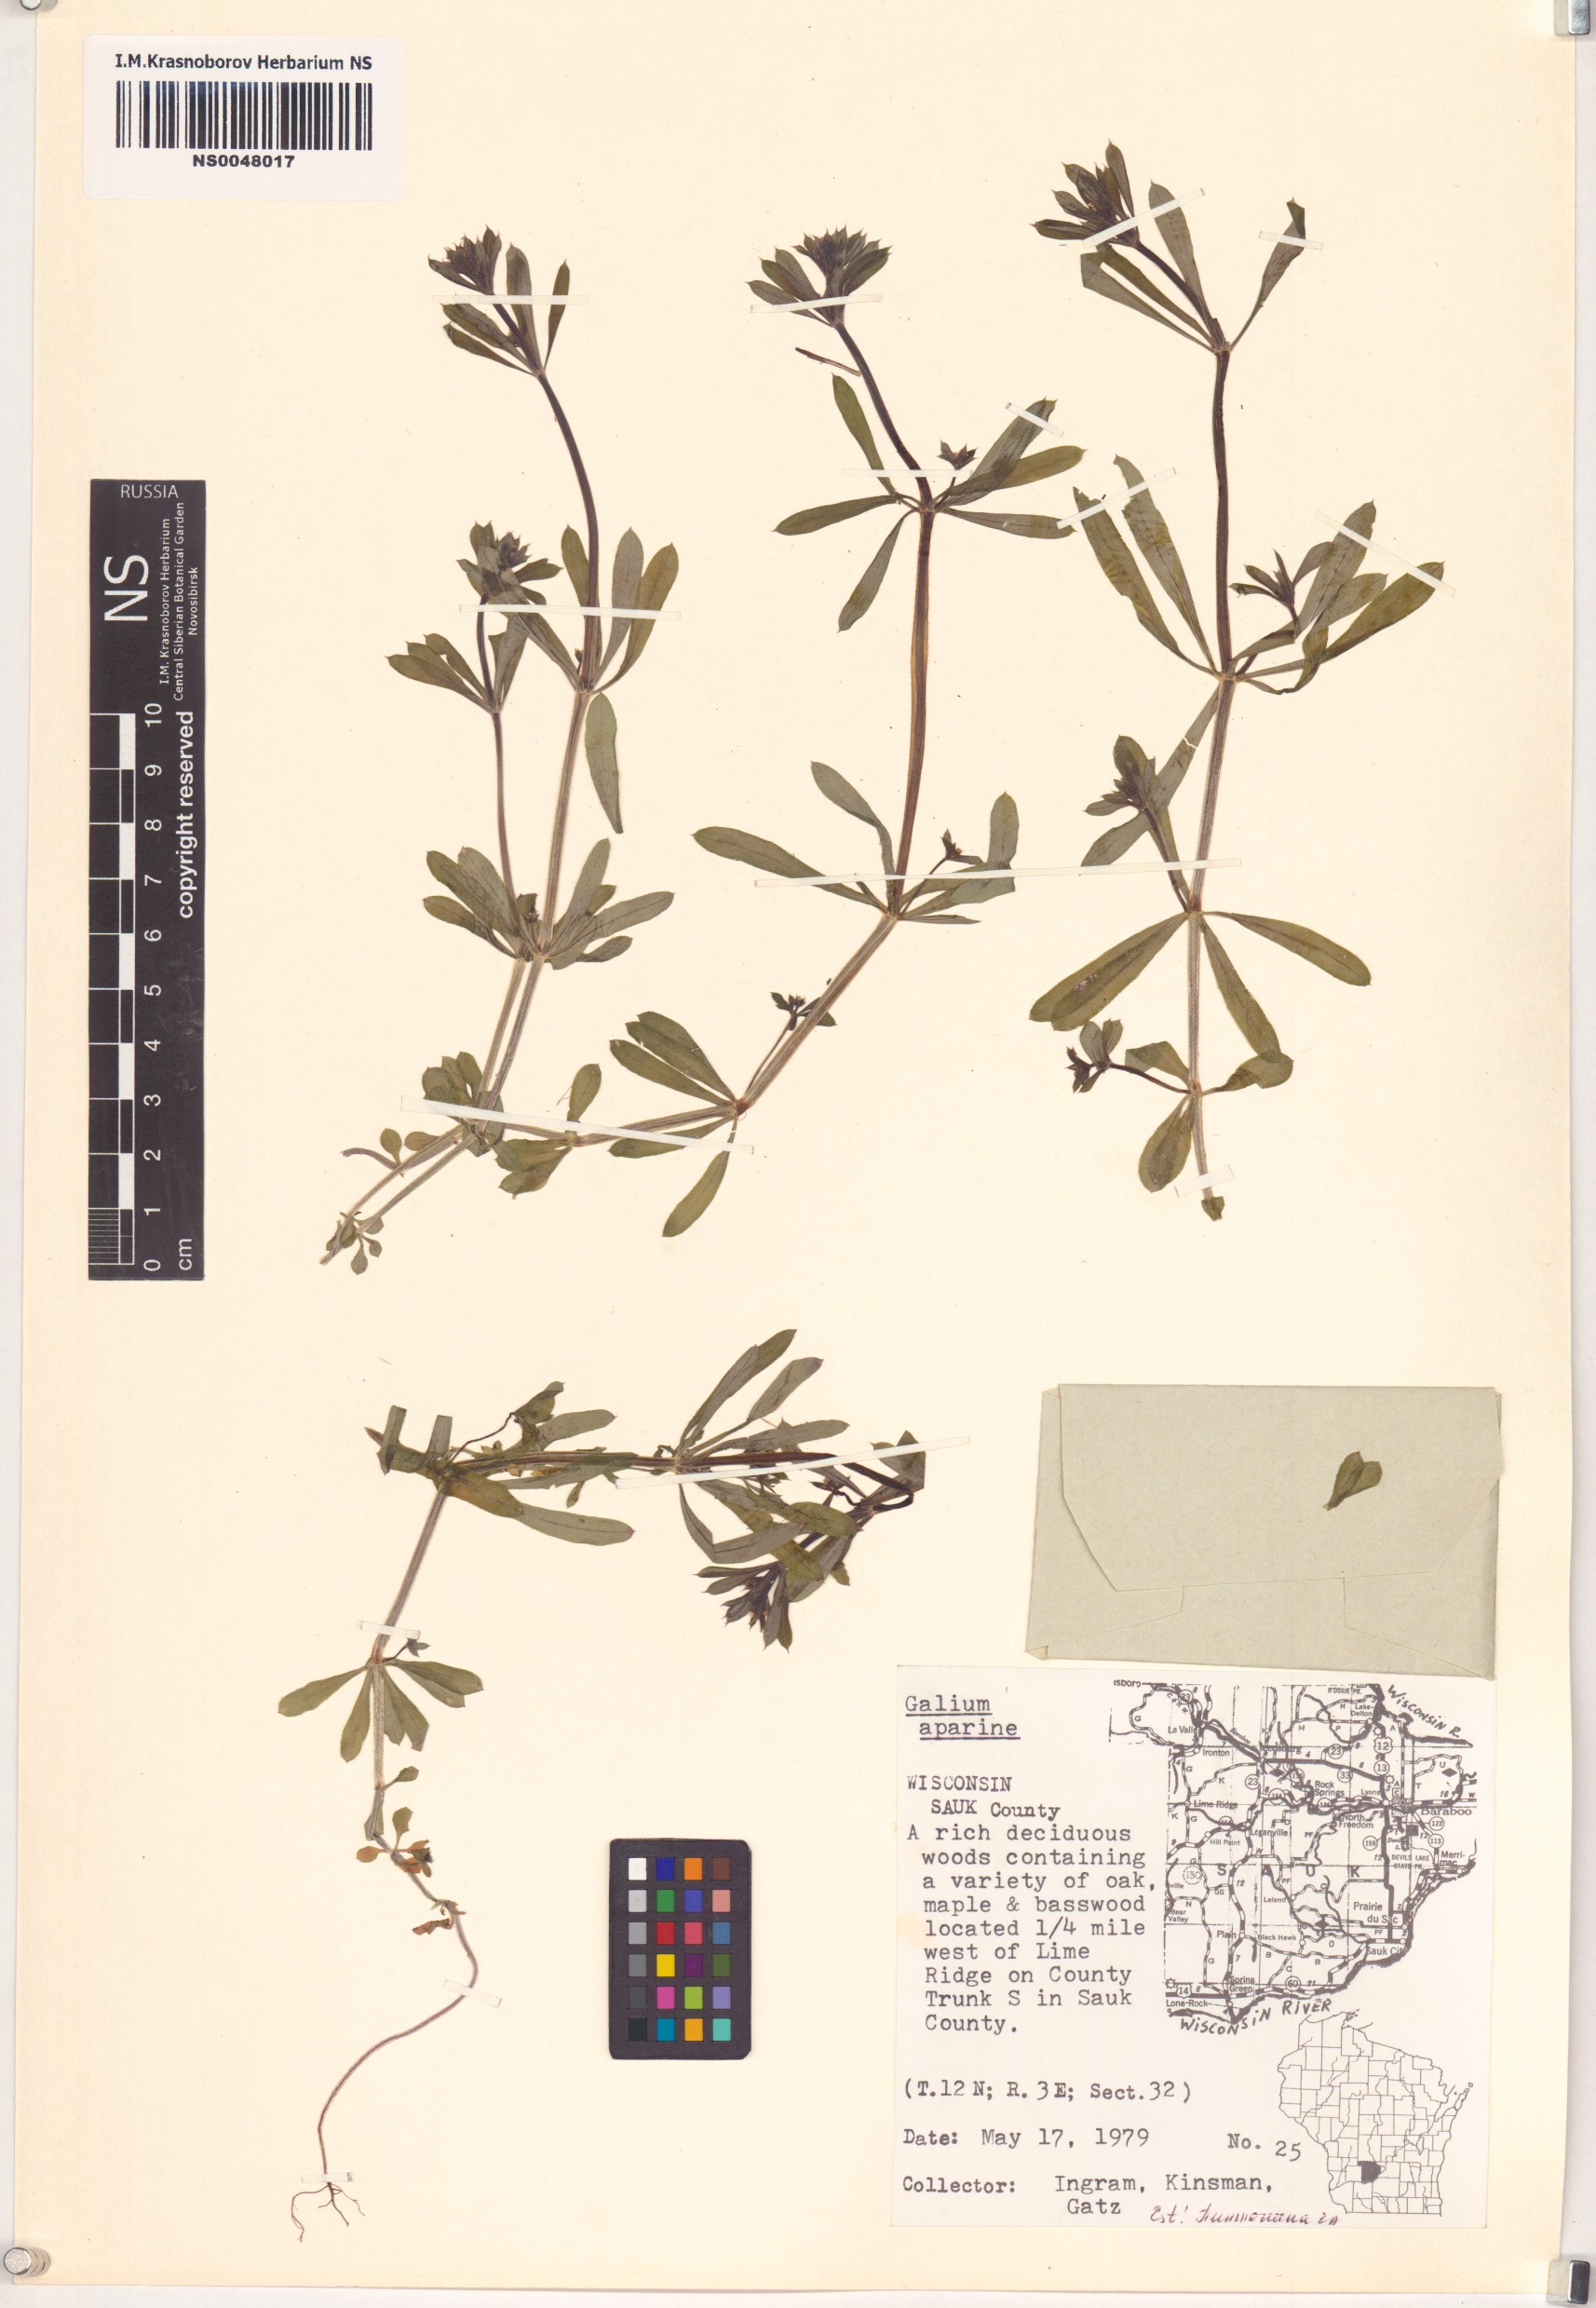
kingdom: Plantae
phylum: Tracheophyta
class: Magnoliopsida
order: Gentianales
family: Rubiaceae
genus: Galium
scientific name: Galium aparine
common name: Cleavers
